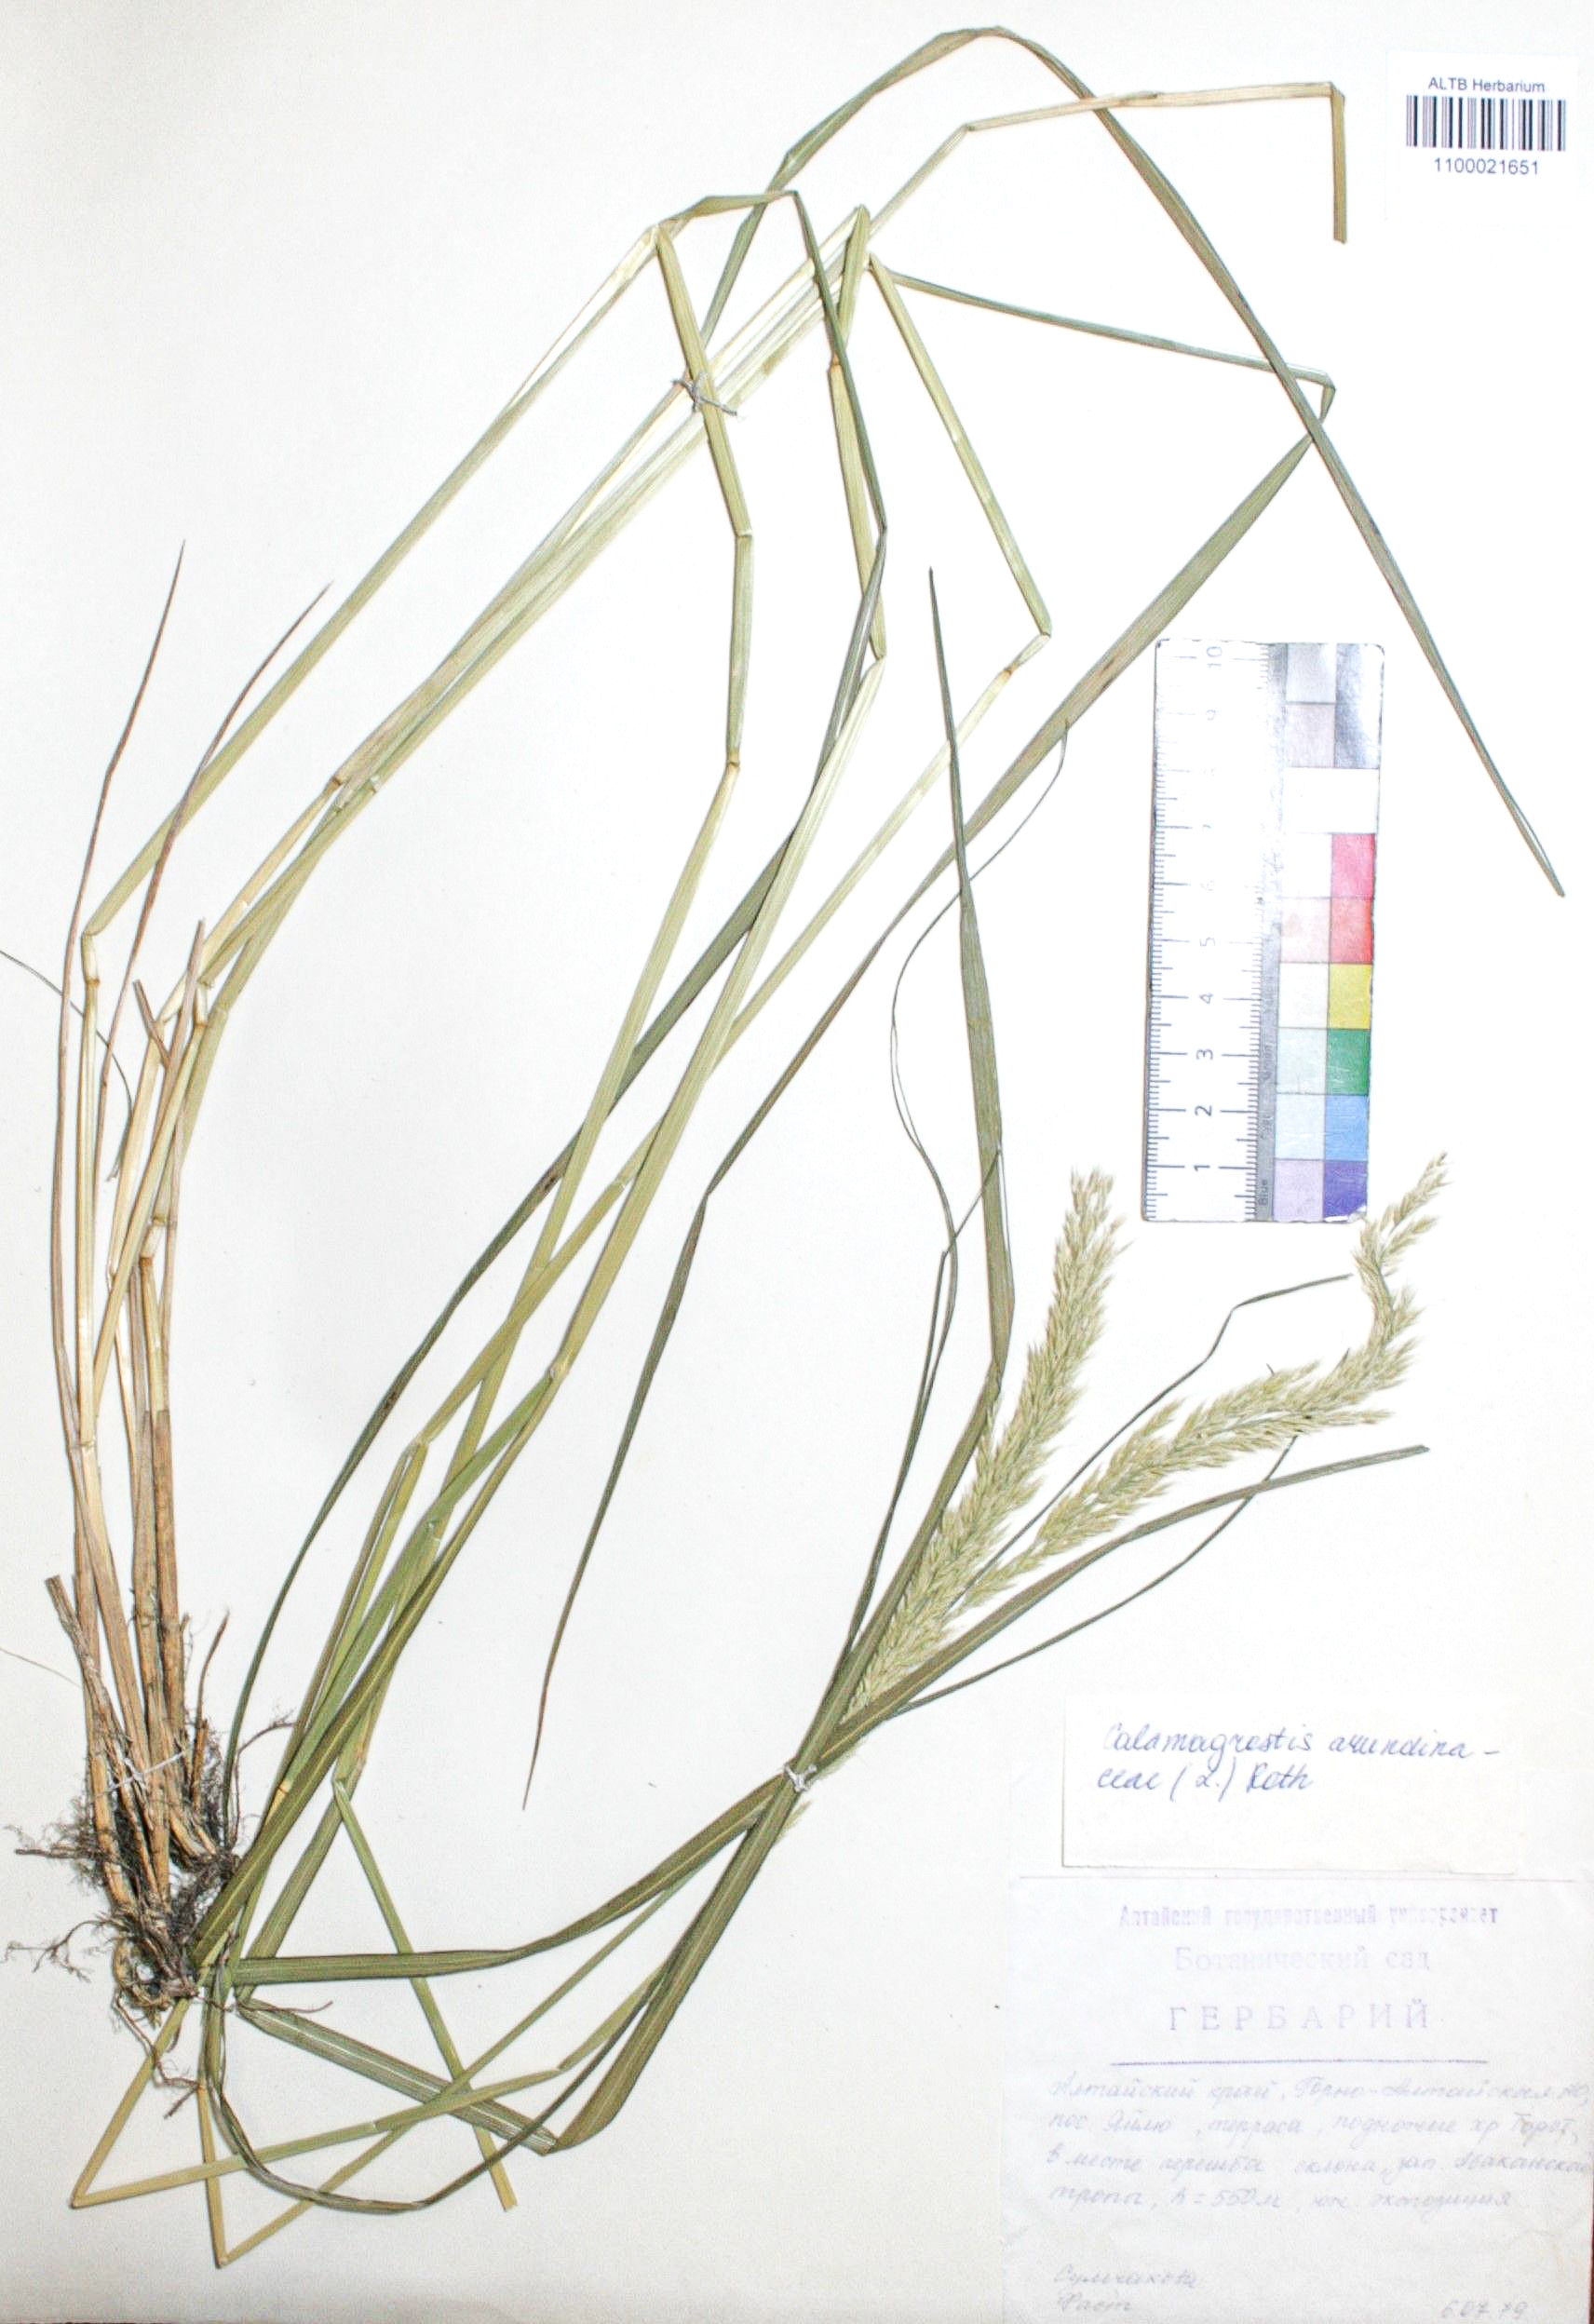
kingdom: Plantae
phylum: Tracheophyta
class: Liliopsida
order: Poales
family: Poaceae
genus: Calamagrostis
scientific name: Calamagrostis arundinacea
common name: Metskastik
